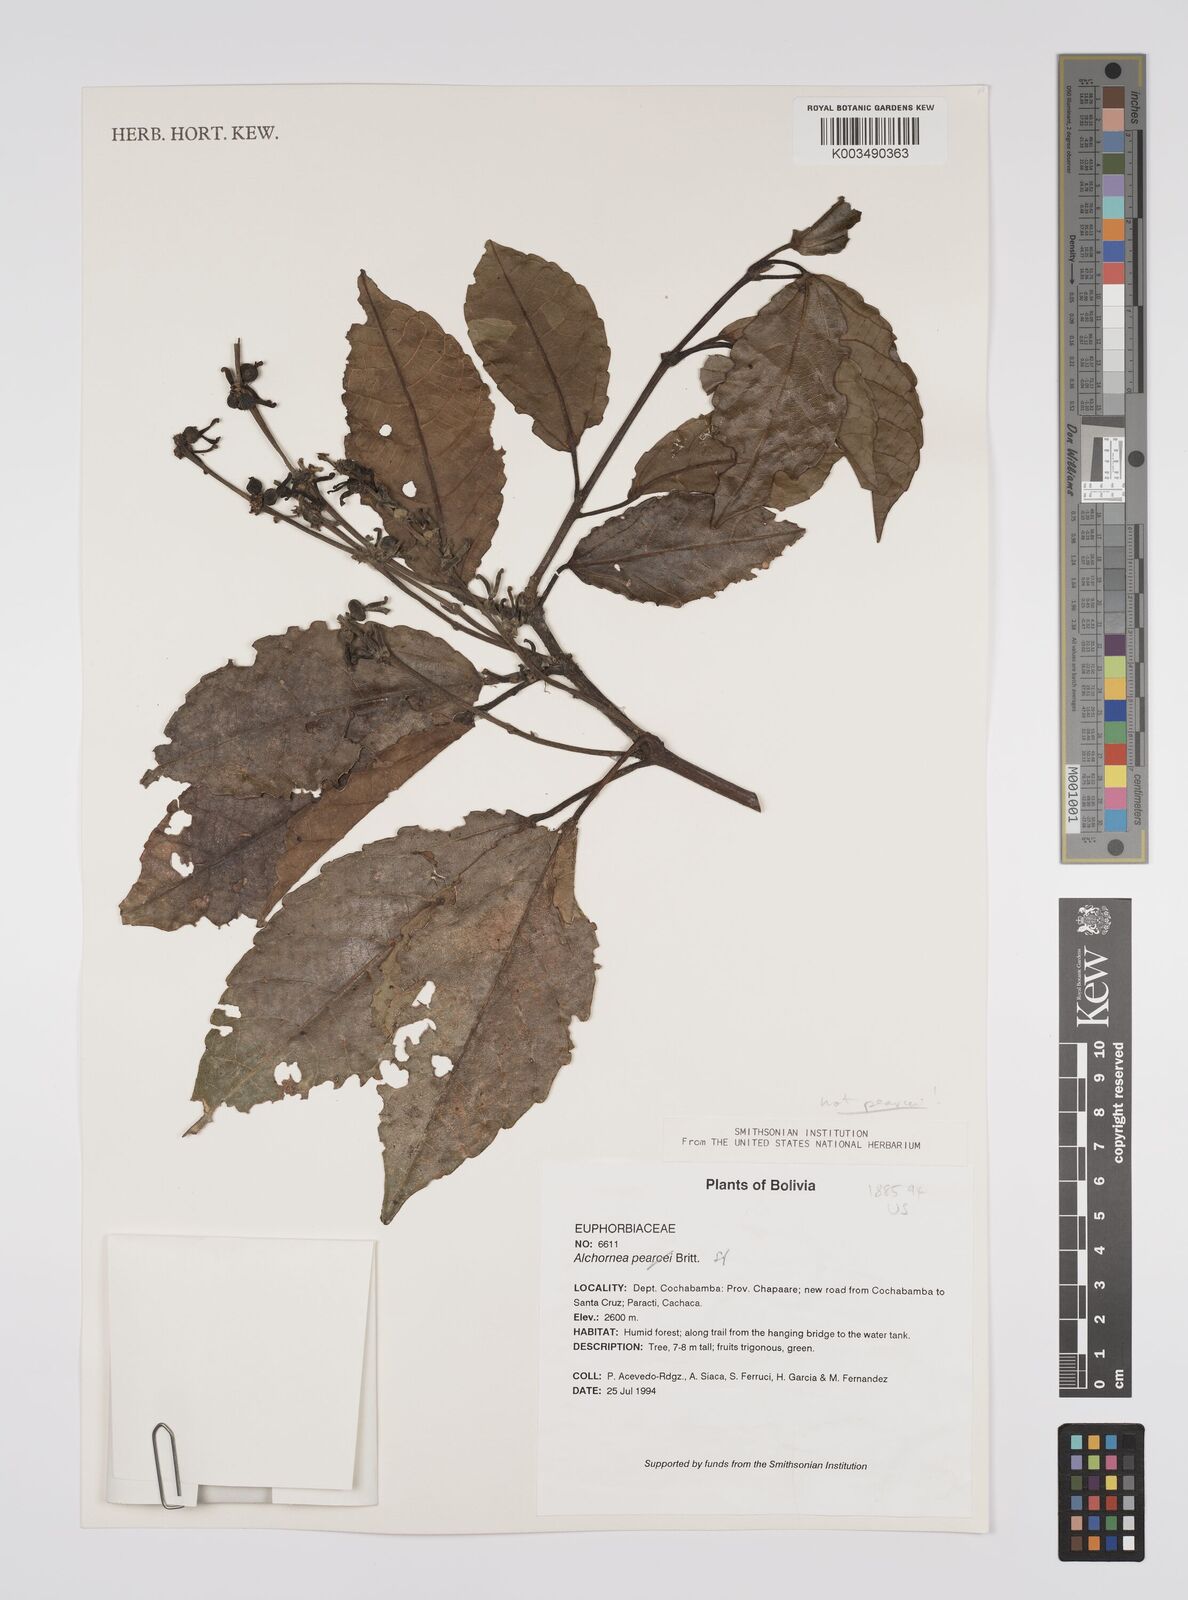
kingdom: Plantae
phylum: Tracheophyta
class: Magnoliopsida
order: Malpighiales
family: Euphorbiaceae
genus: Alchornea
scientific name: Alchornea
